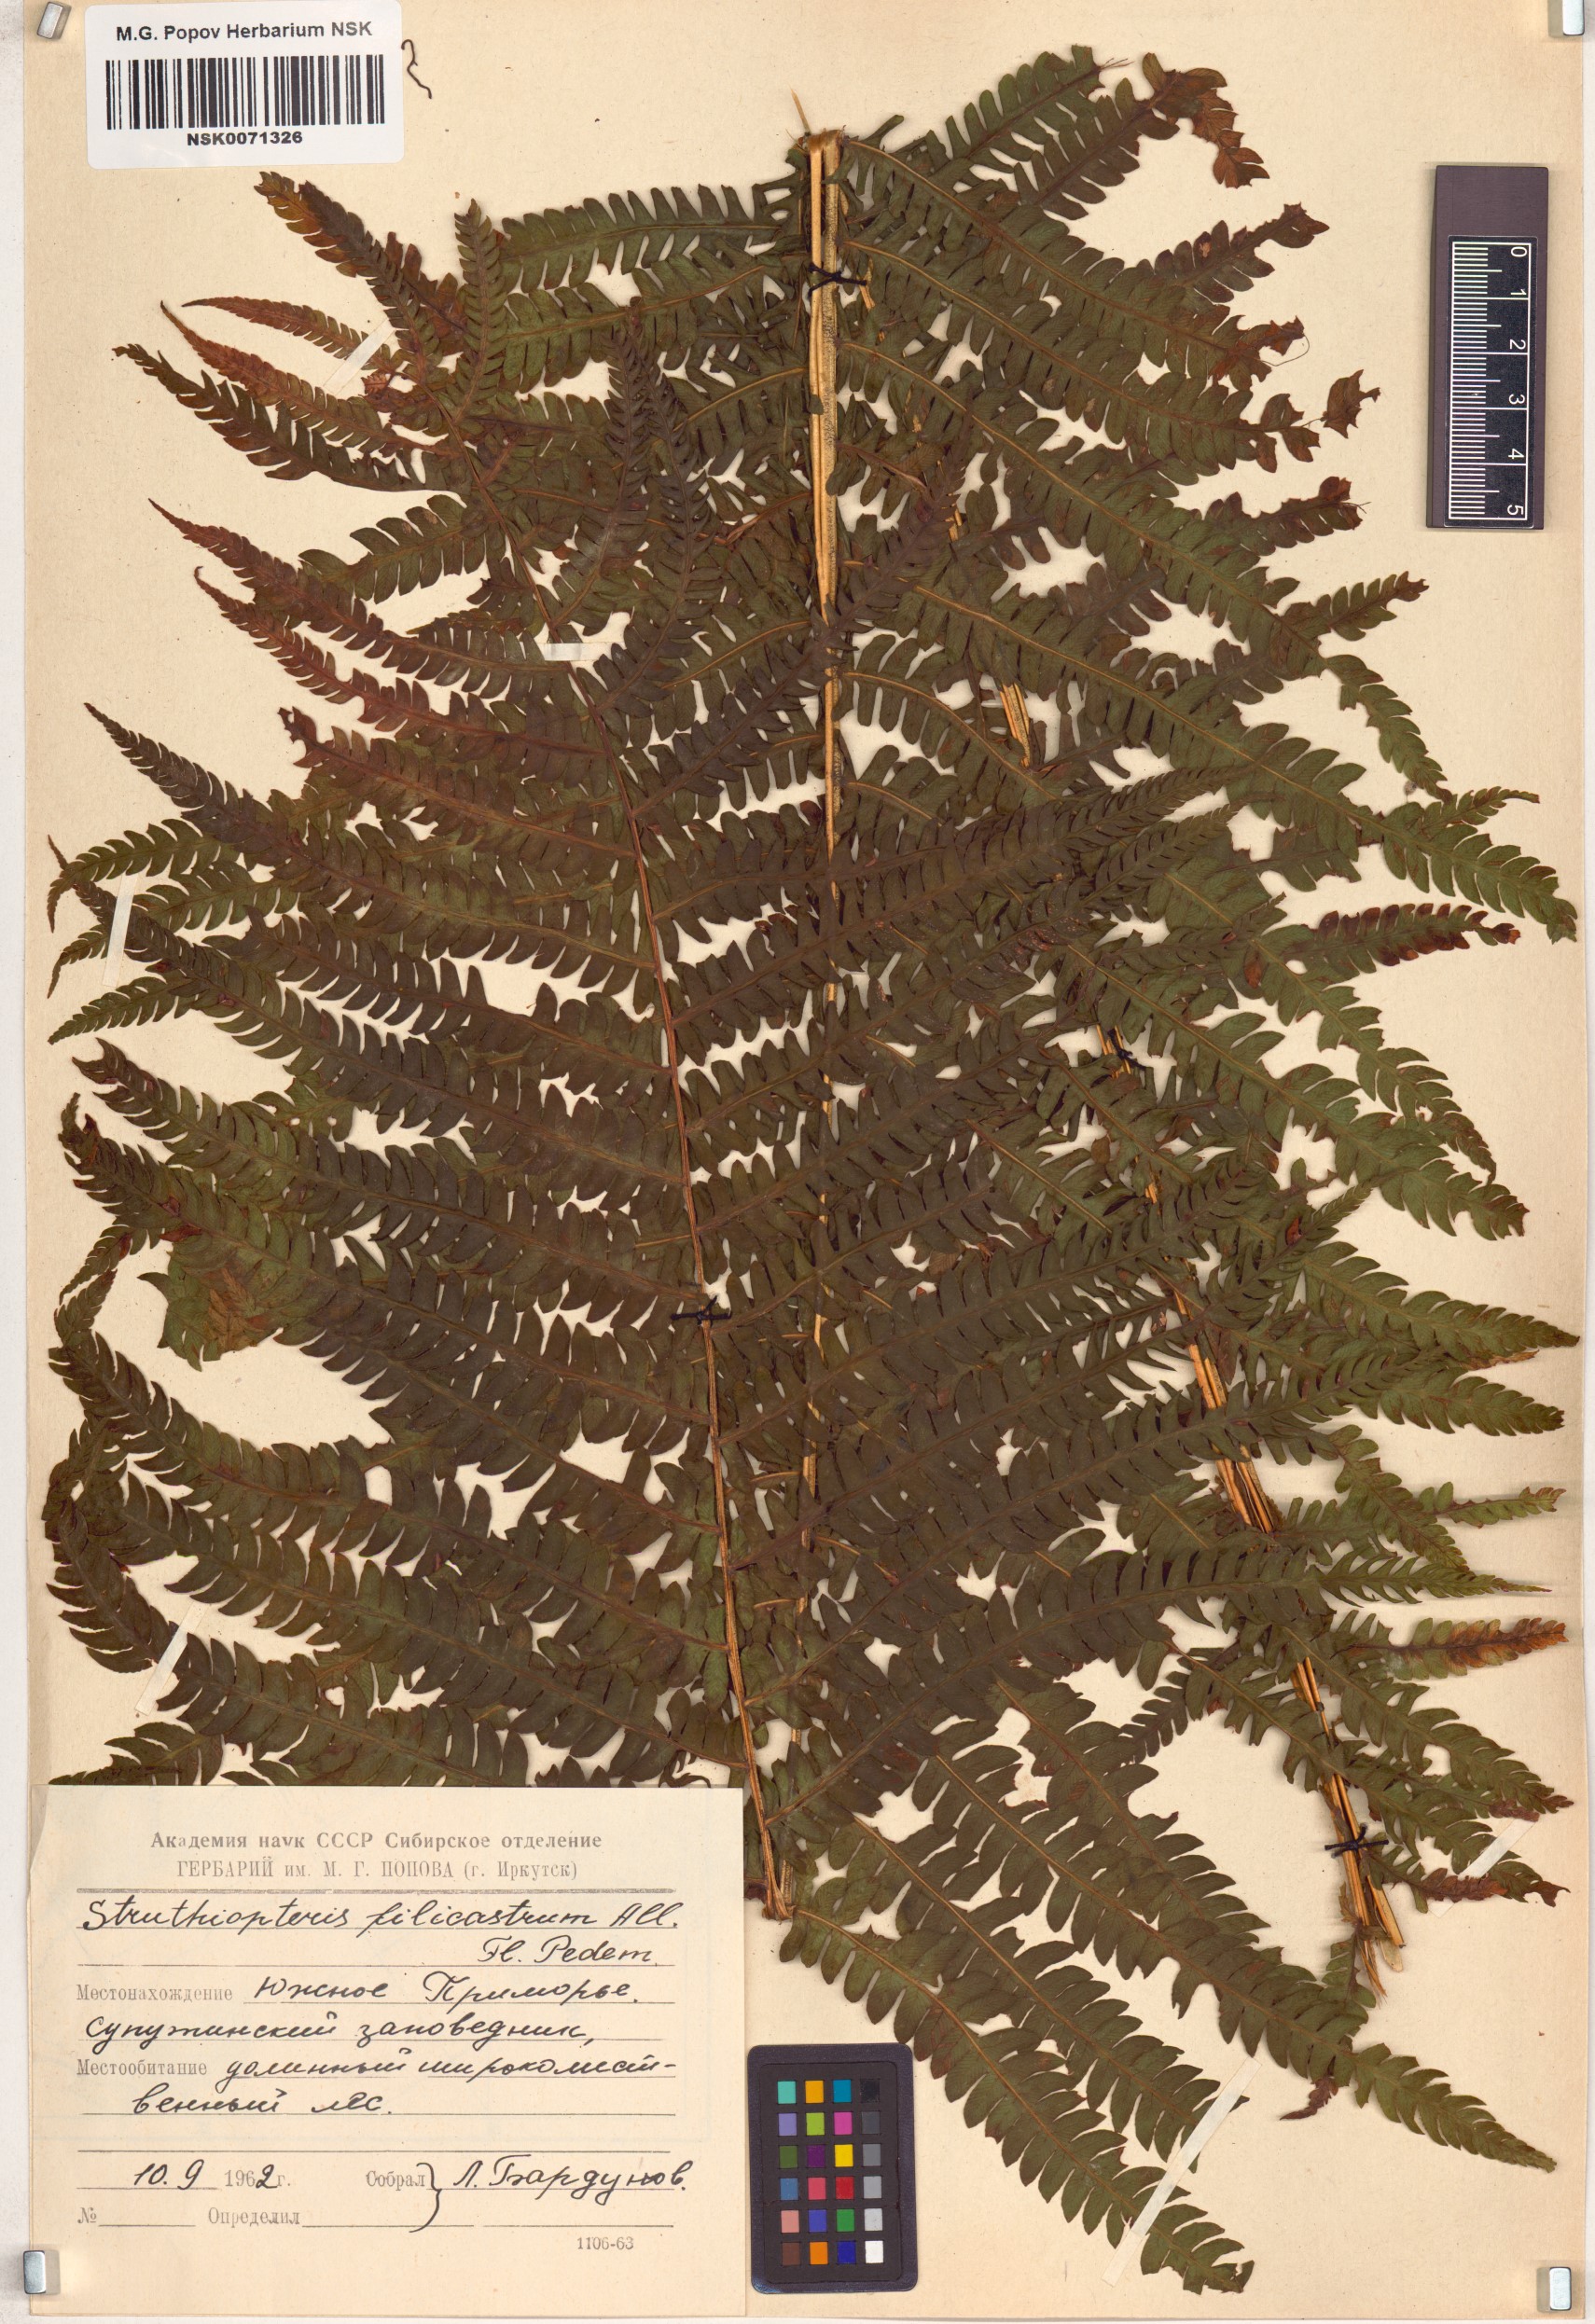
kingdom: Plantae
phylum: Tracheophyta
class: Polypodiopsida
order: Polypodiales
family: Onocleaceae
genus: Matteuccia
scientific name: Matteuccia struthiopteris
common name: Ostrich fern
